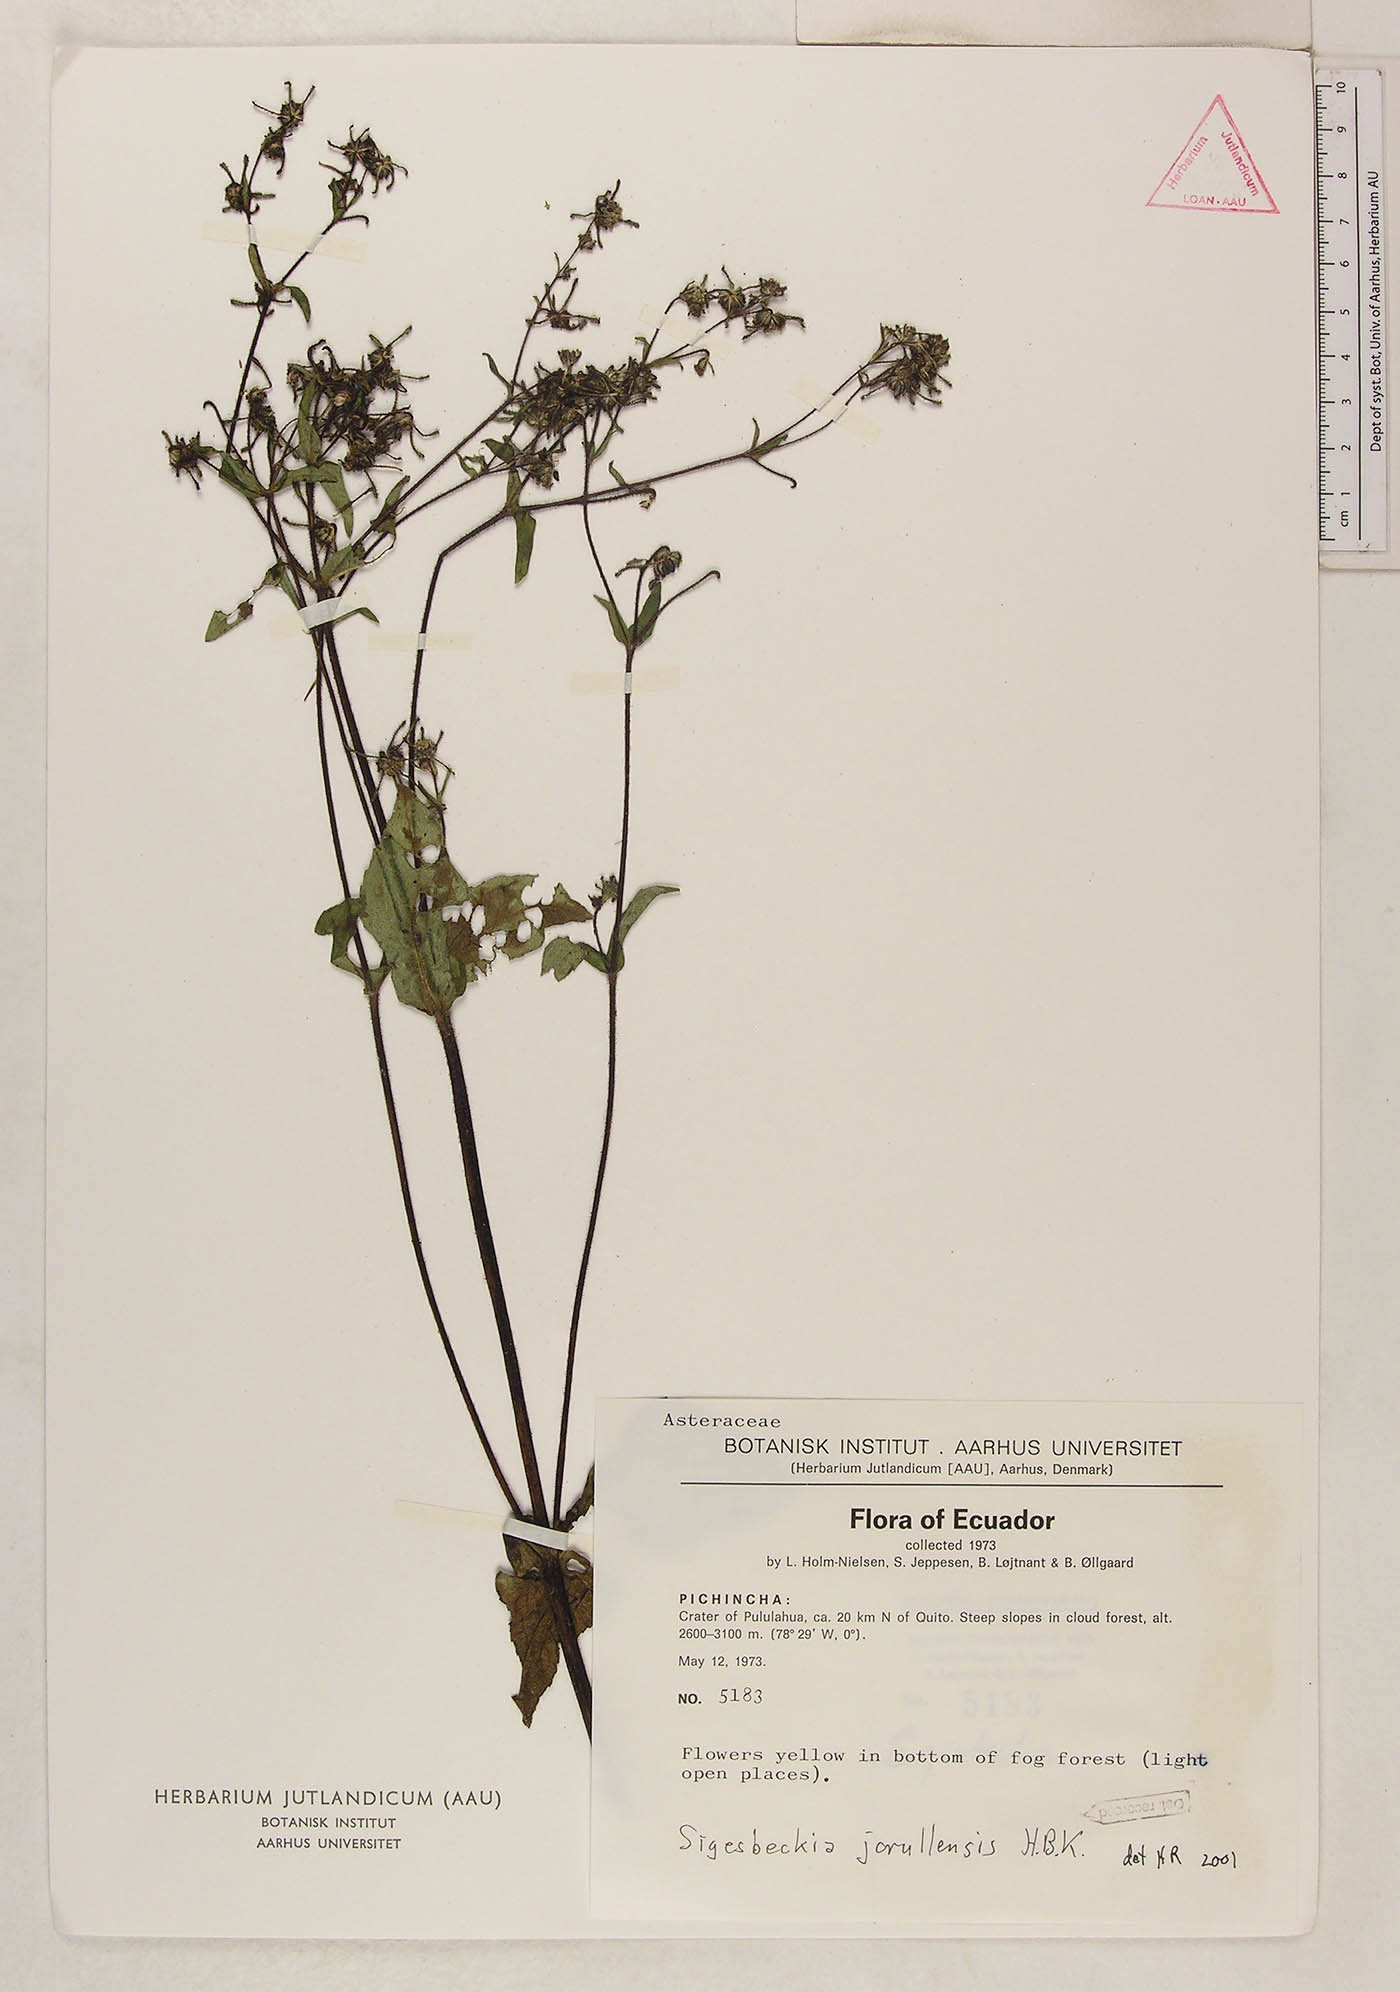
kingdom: Plantae
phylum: Tracheophyta
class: Magnoliopsida
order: Asterales
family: Asteraceae
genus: Sigesbeckia
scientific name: Sigesbeckia jorullensis
